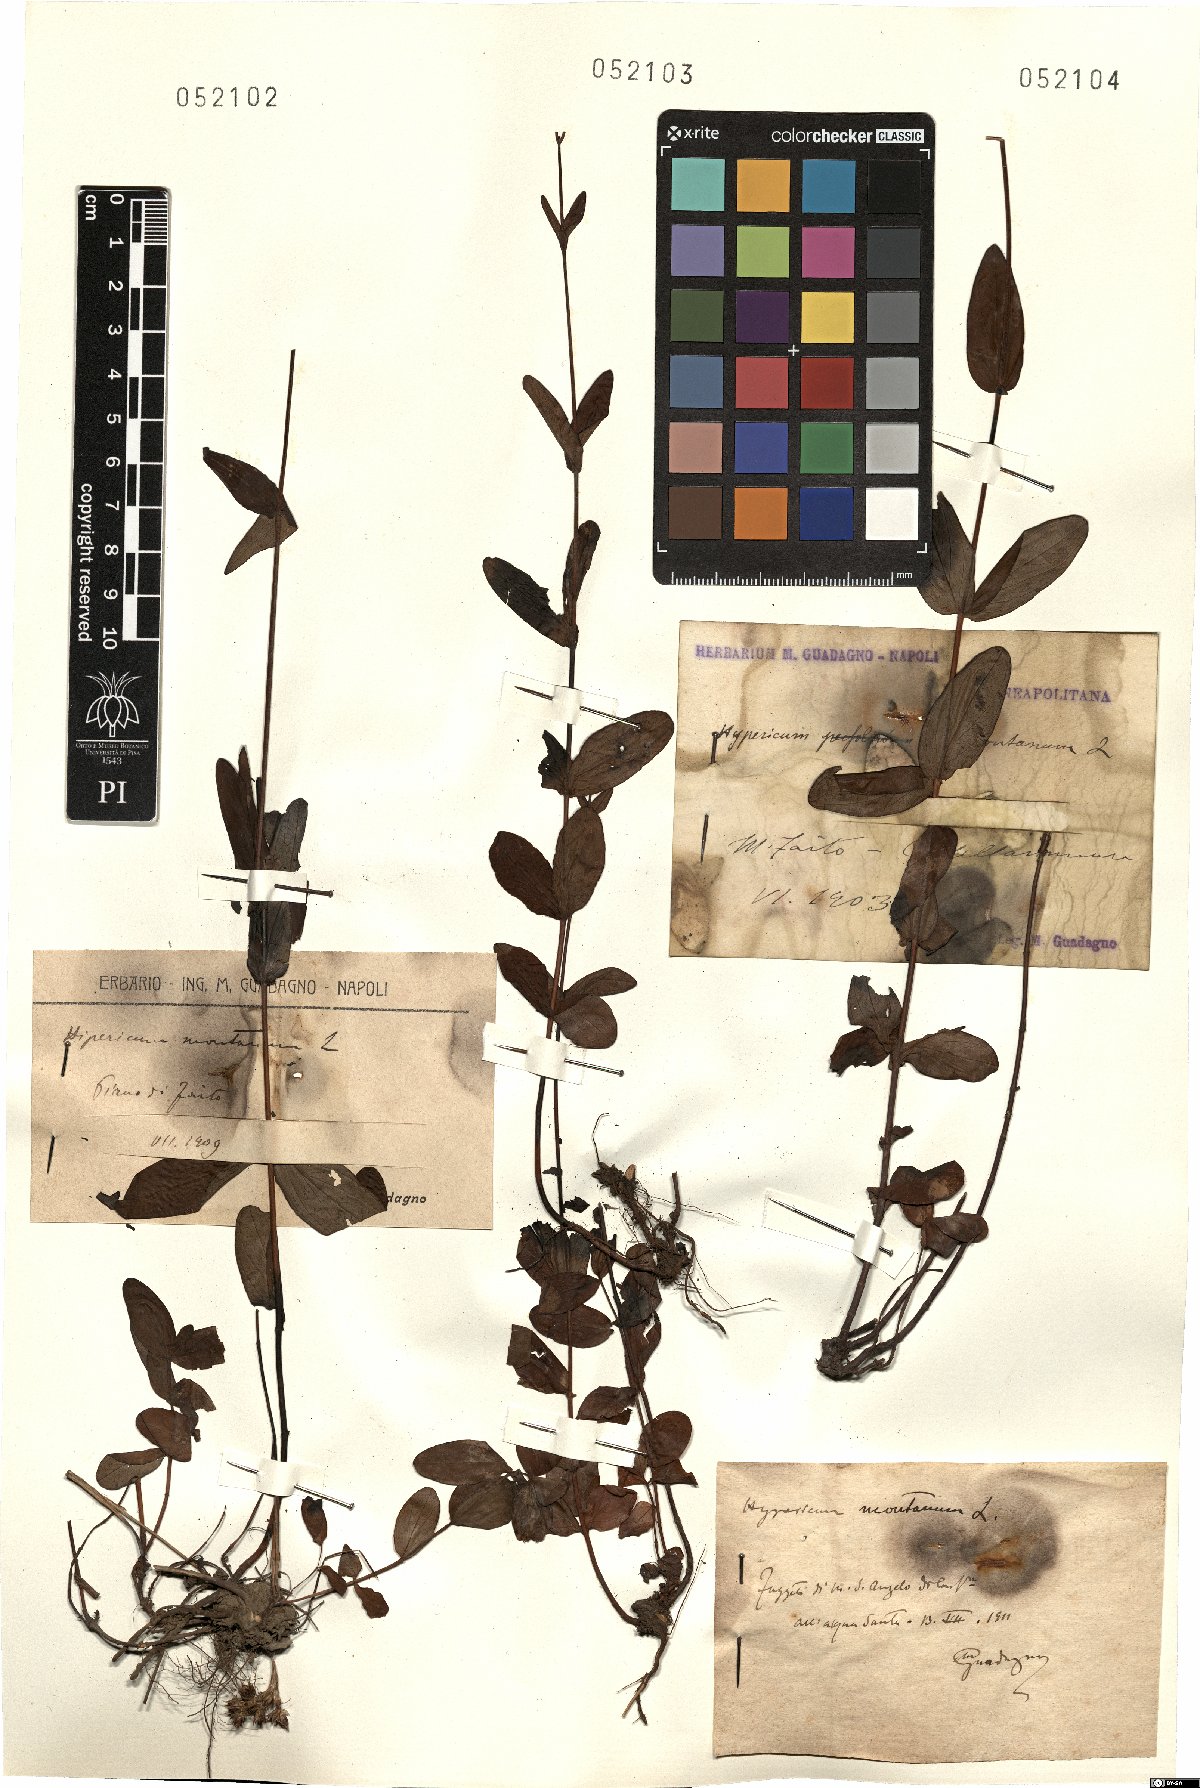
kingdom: Plantae
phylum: Tracheophyta
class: Magnoliopsida
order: Malpighiales
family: Hypericaceae
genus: Hypericum
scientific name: Hypericum montanum
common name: Pale st. john's-wort
